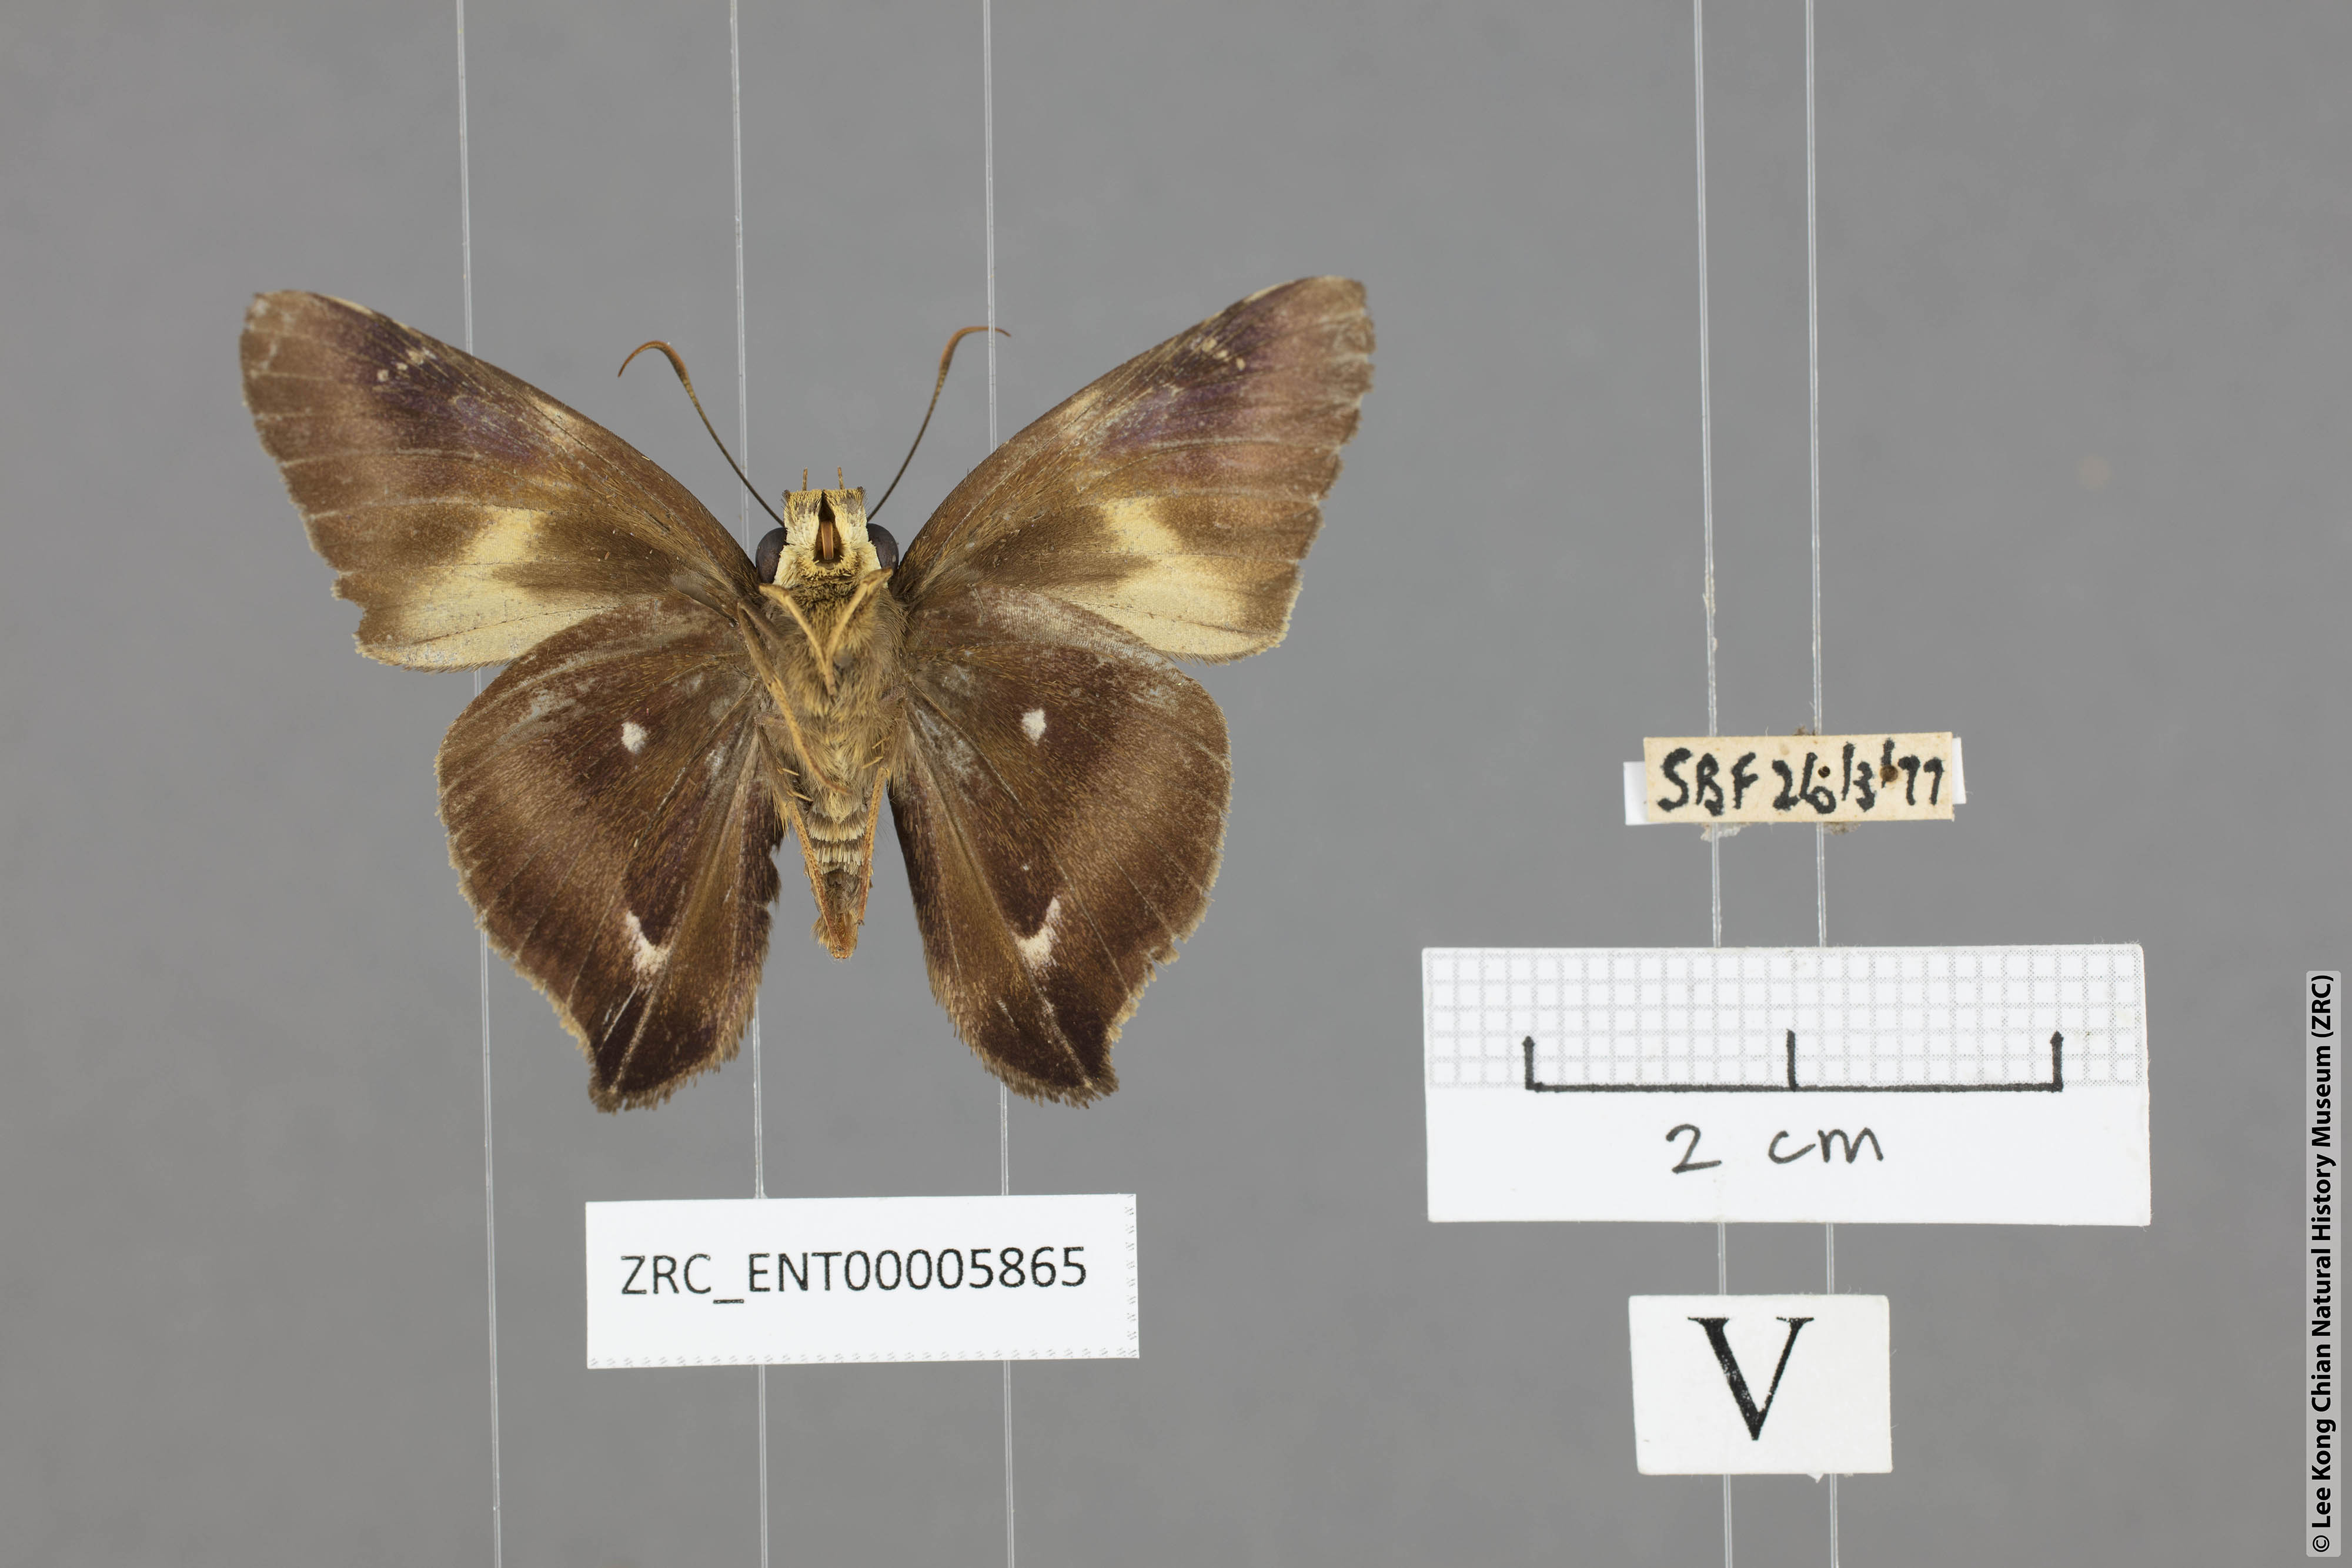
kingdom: Animalia
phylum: Arthropoda
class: Insecta
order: Lepidoptera
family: Hesperiidae
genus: Hasora
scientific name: Hasora badra
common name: Common awl
